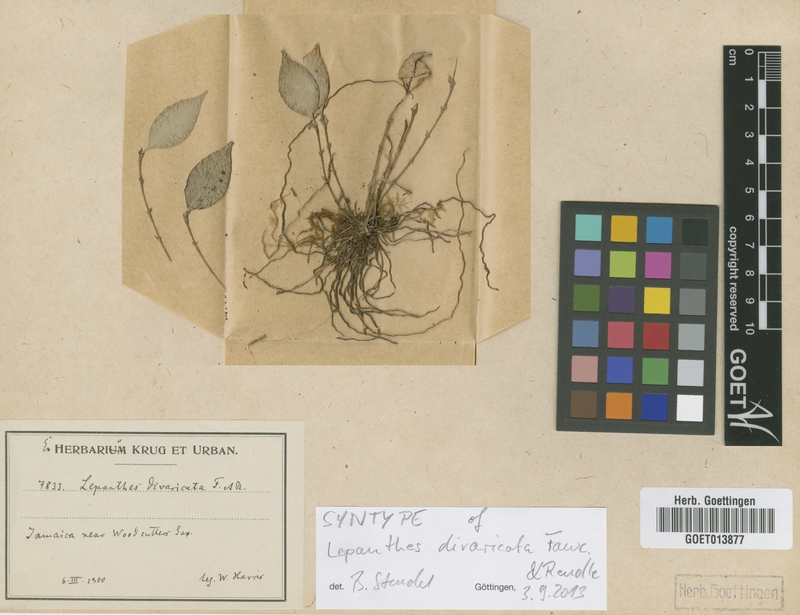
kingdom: Plantae
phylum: Tracheophyta
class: Liliopsida
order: Asparagales
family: Orchidaceae
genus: Lepanthes
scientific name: Lepanthes divaricata
